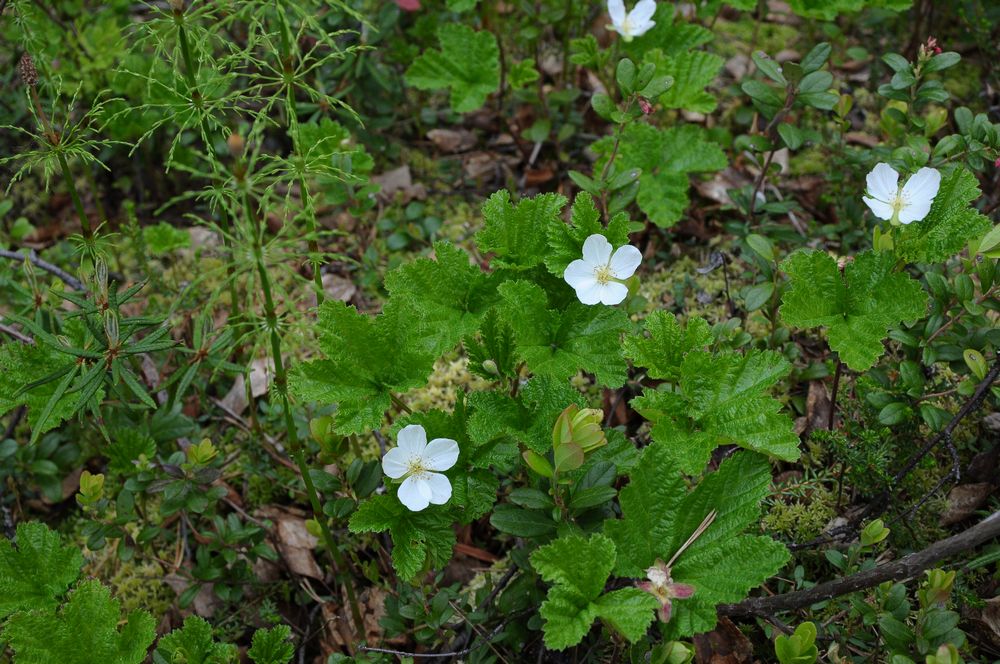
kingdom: Plantae
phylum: Tracheophyta
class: Magnoliopsida
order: Rosales
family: Rosaceae
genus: Rubus
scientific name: Rubus chamaemorus
